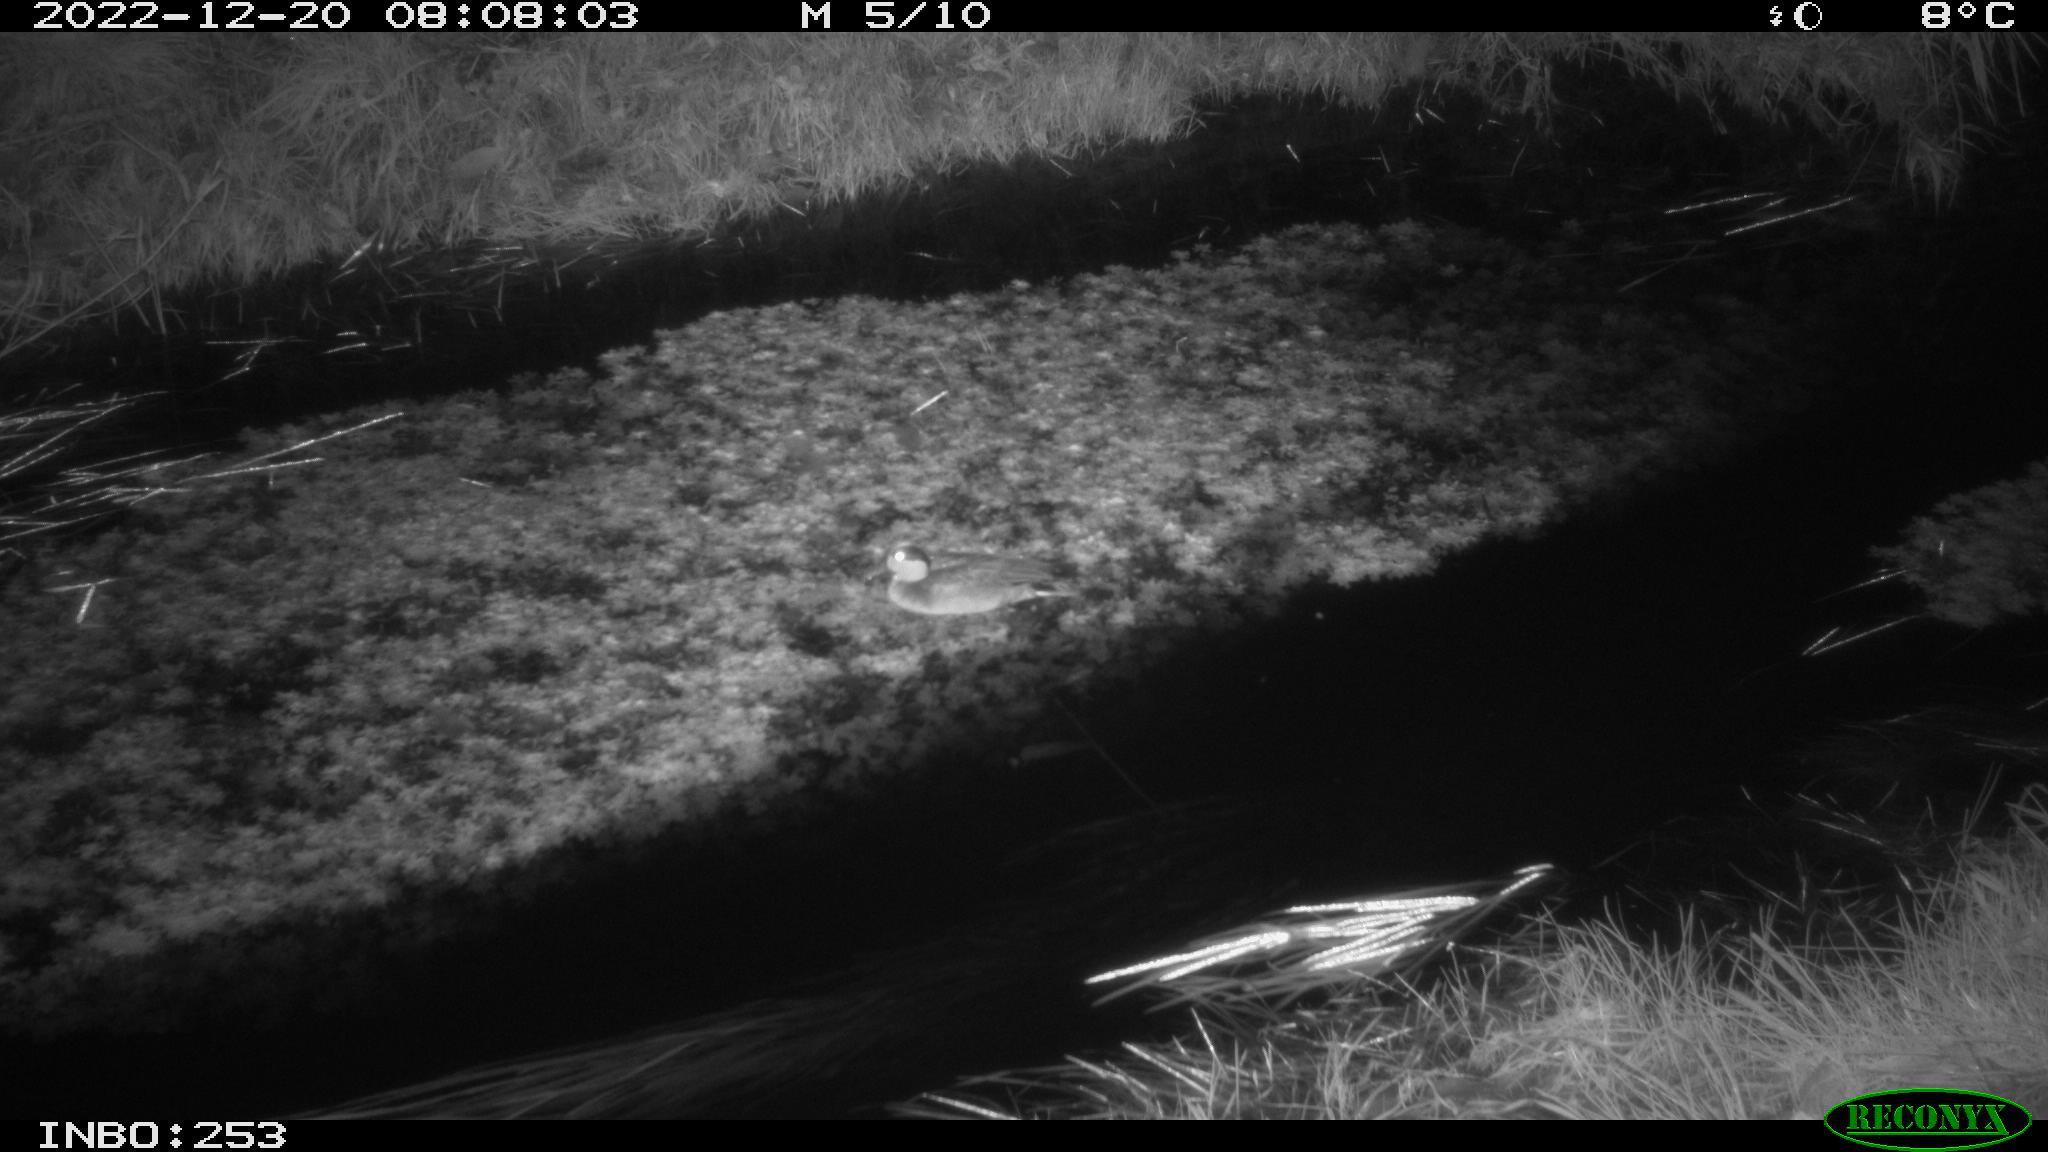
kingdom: Animalia
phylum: Chordata
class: Aves
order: Anseriformes
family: Anatidae
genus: Anas
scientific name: Anas
